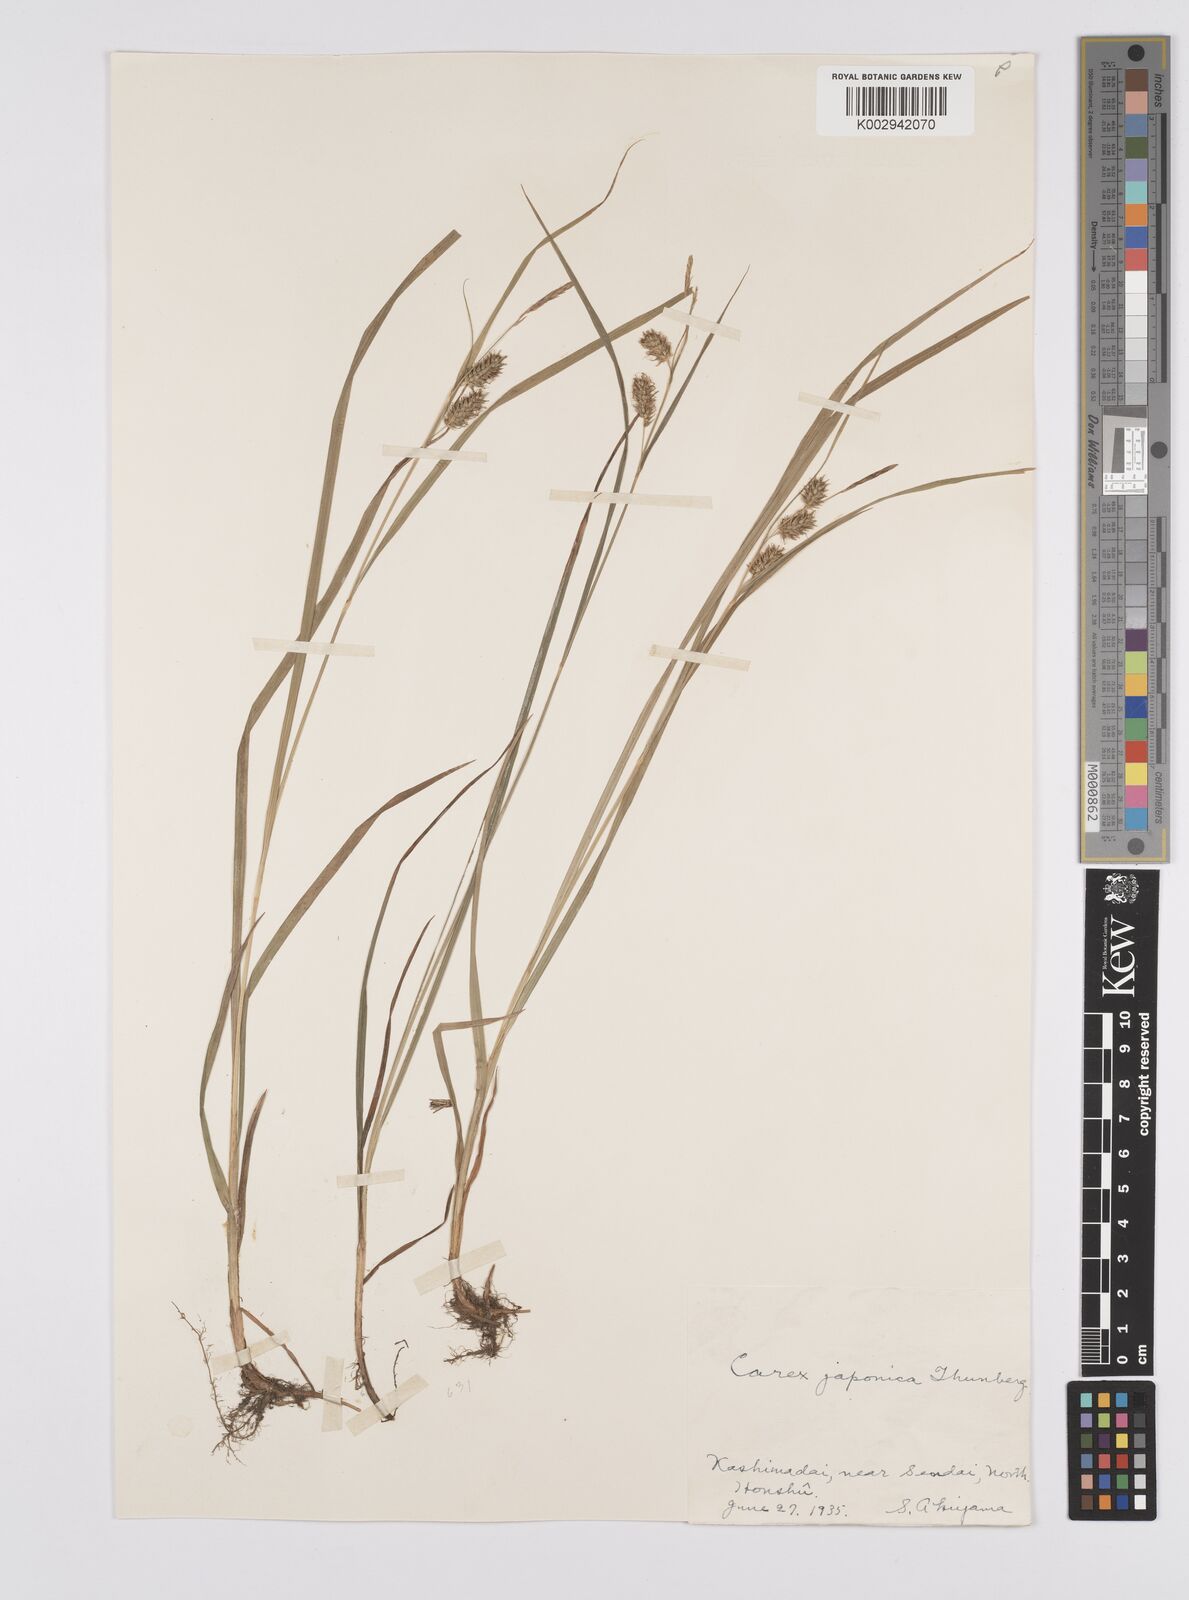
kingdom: Plantae
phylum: Tracheophyta
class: Liliopsida
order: Poales
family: Cyperaceae
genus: Carex
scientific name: Carex japonica
